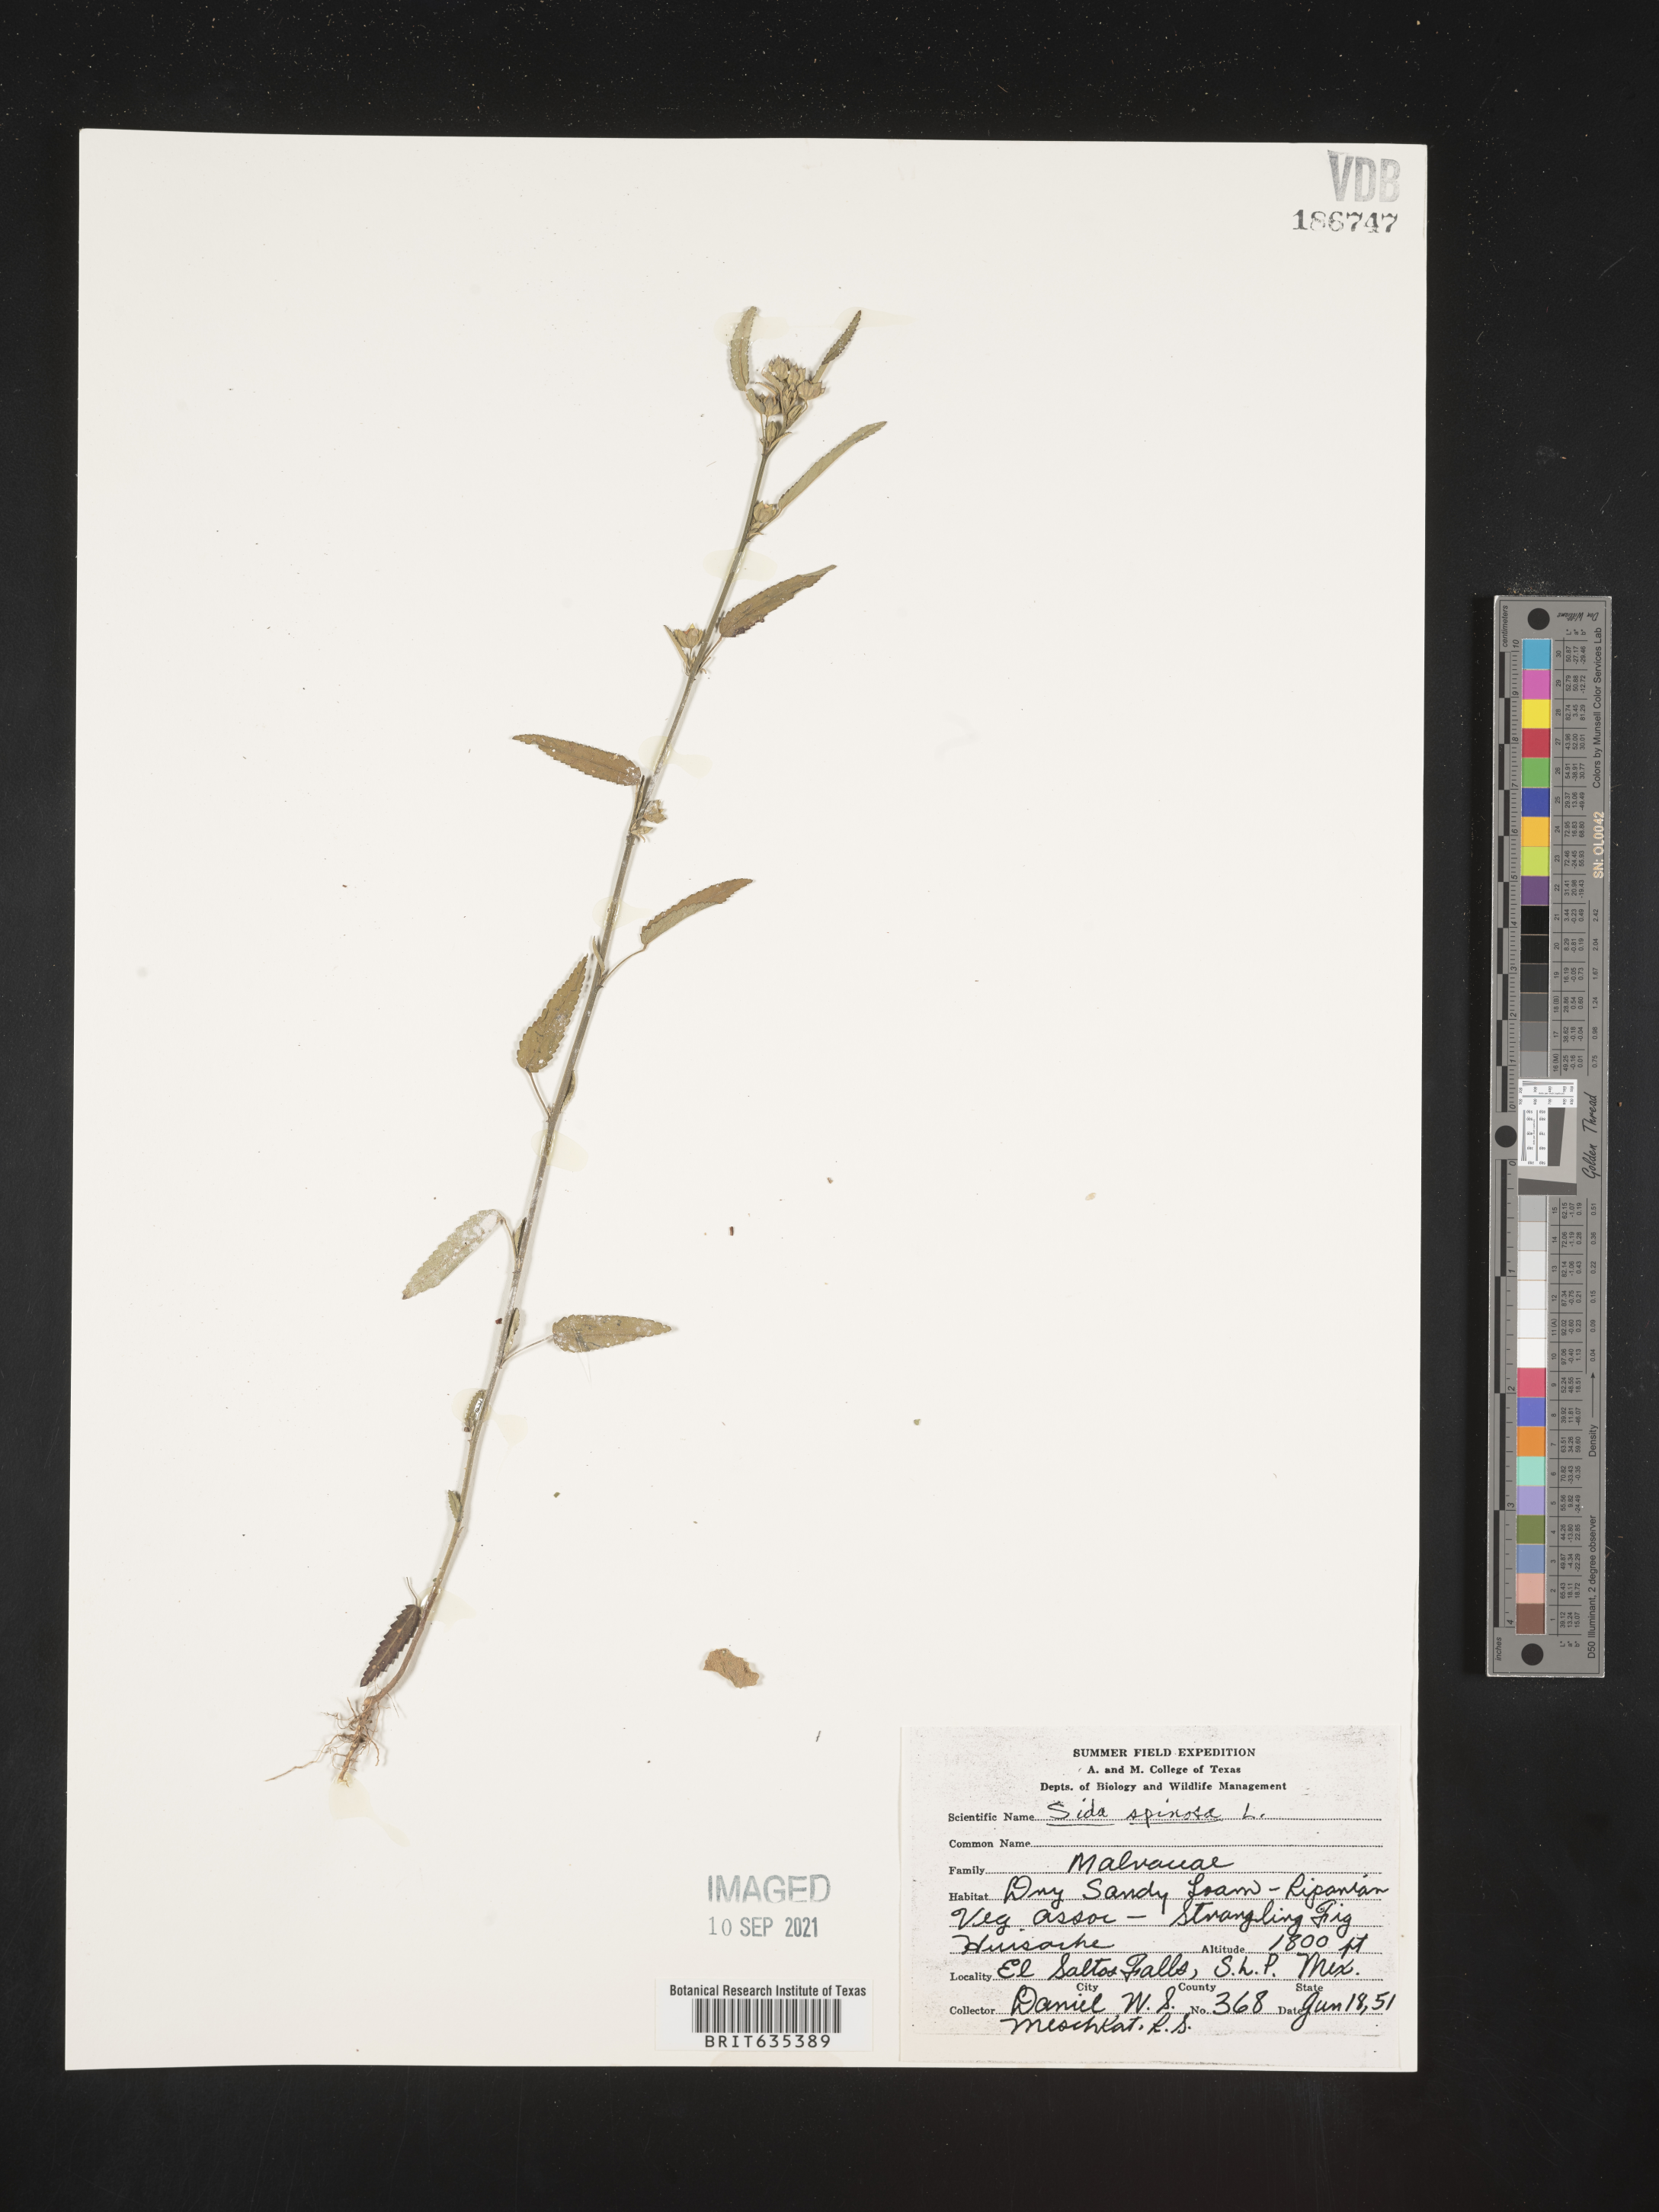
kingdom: Plantae
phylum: Tracheophyta
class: Magnoliopsida
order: Malvales
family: Malvaceae
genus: Sida
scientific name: Sida
